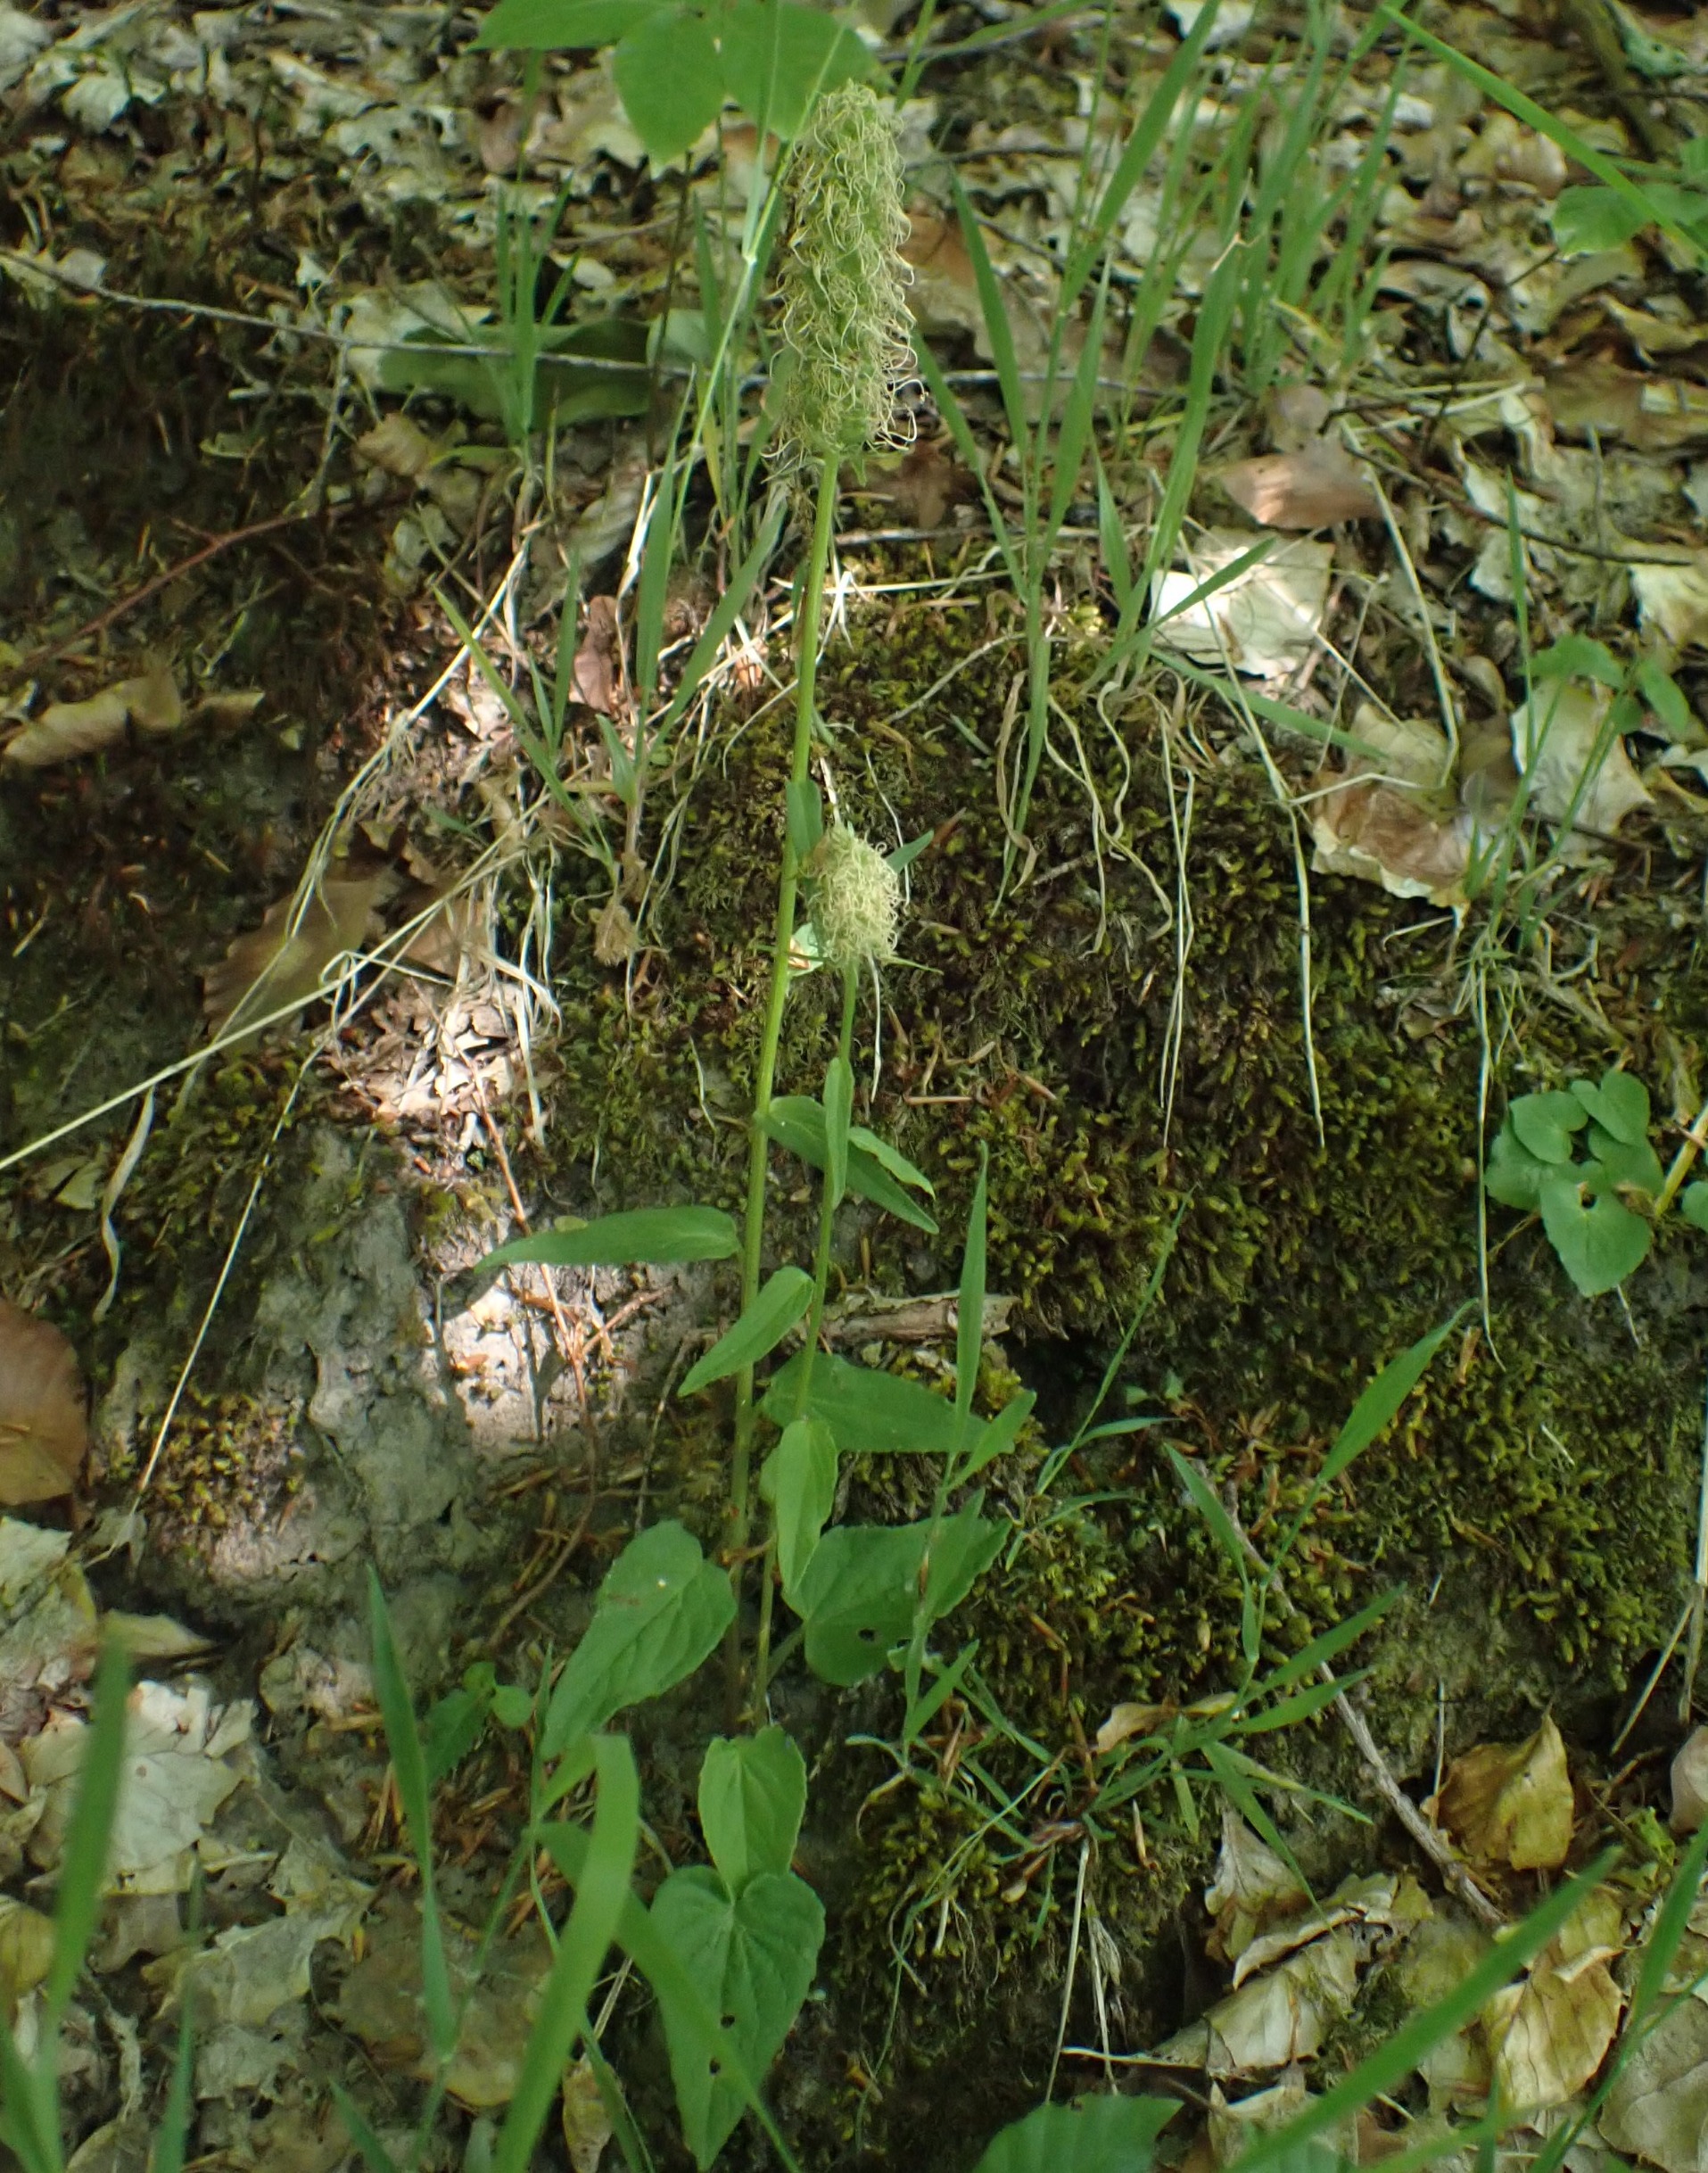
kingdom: Plantae
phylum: Tracheophyta
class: Magnoliopsida
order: Asterales
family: Campanulaceae
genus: Phyteuma
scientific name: Phyteuma spicatum
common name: Aks-rapunsel
